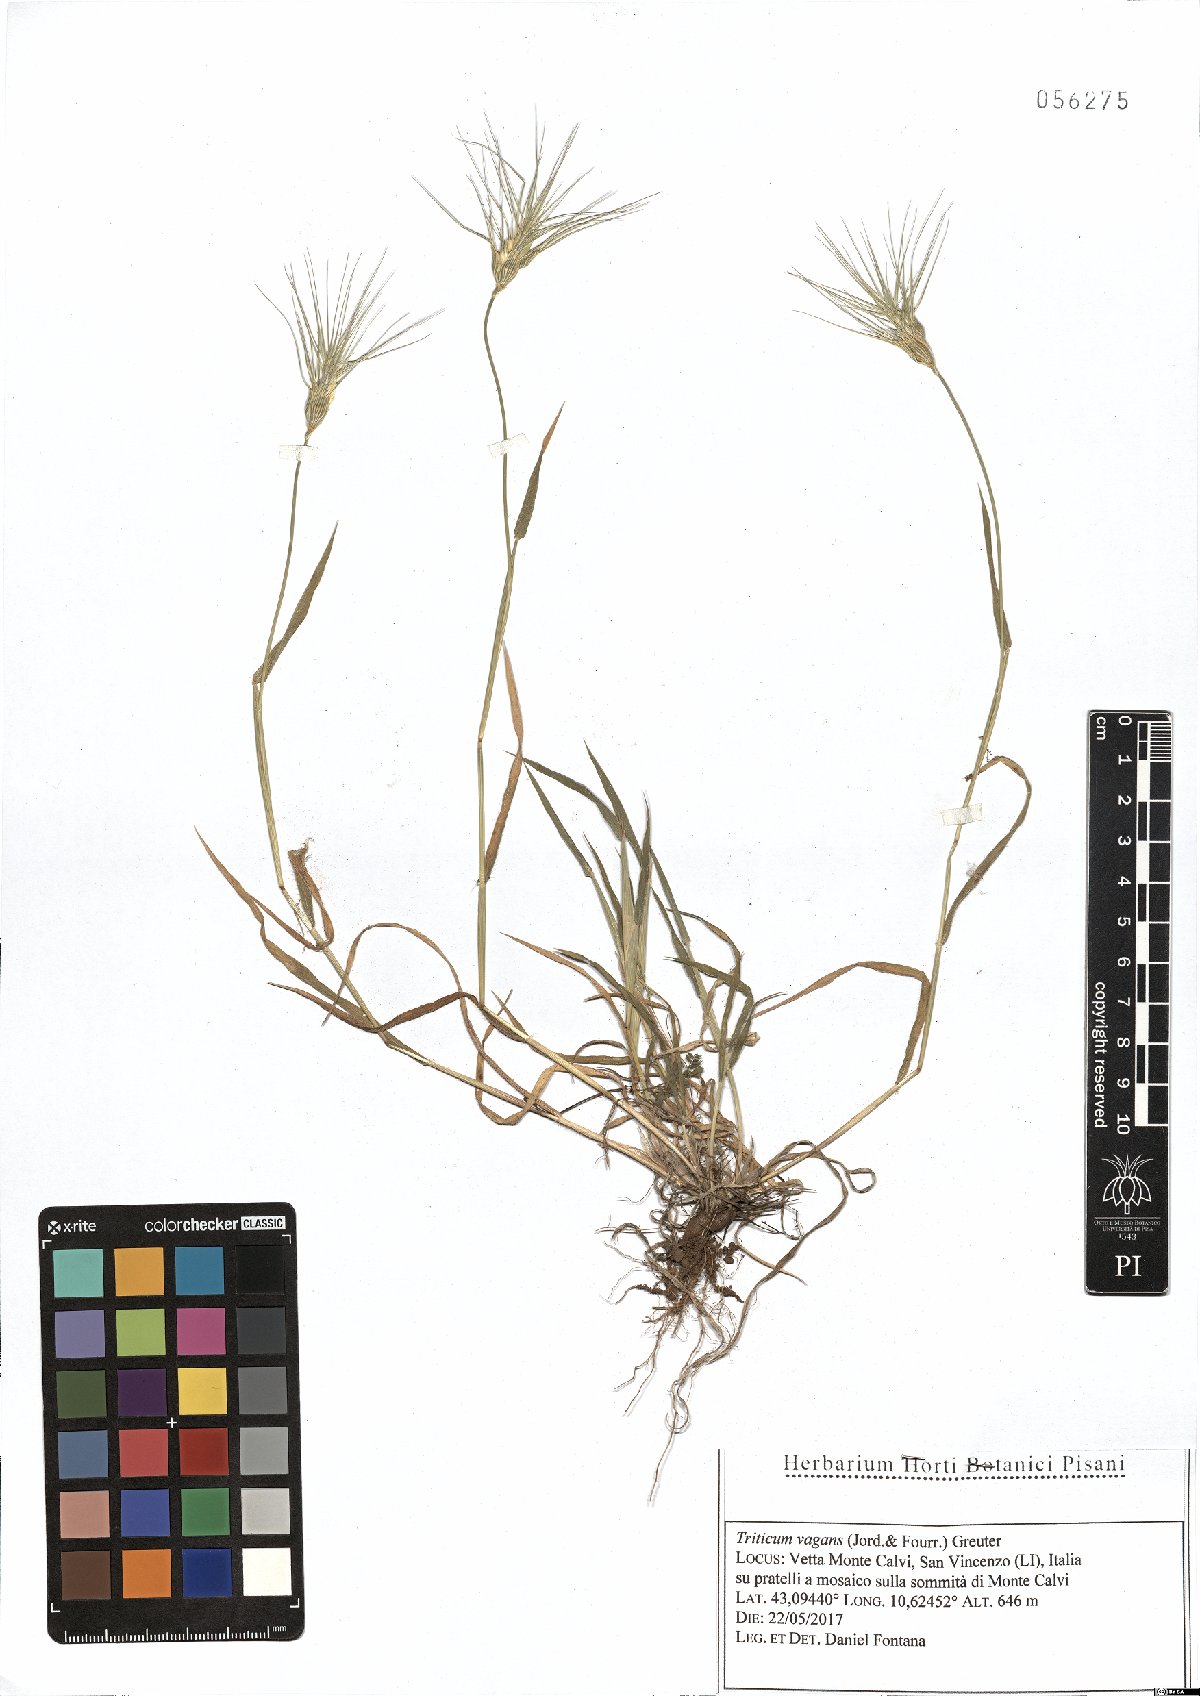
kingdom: Plantae
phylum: Tracheophyta
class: Liliopsida
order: Poales
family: Poaceae
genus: Aegilops
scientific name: Aegilops geniculata
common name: Ovate goat grass
